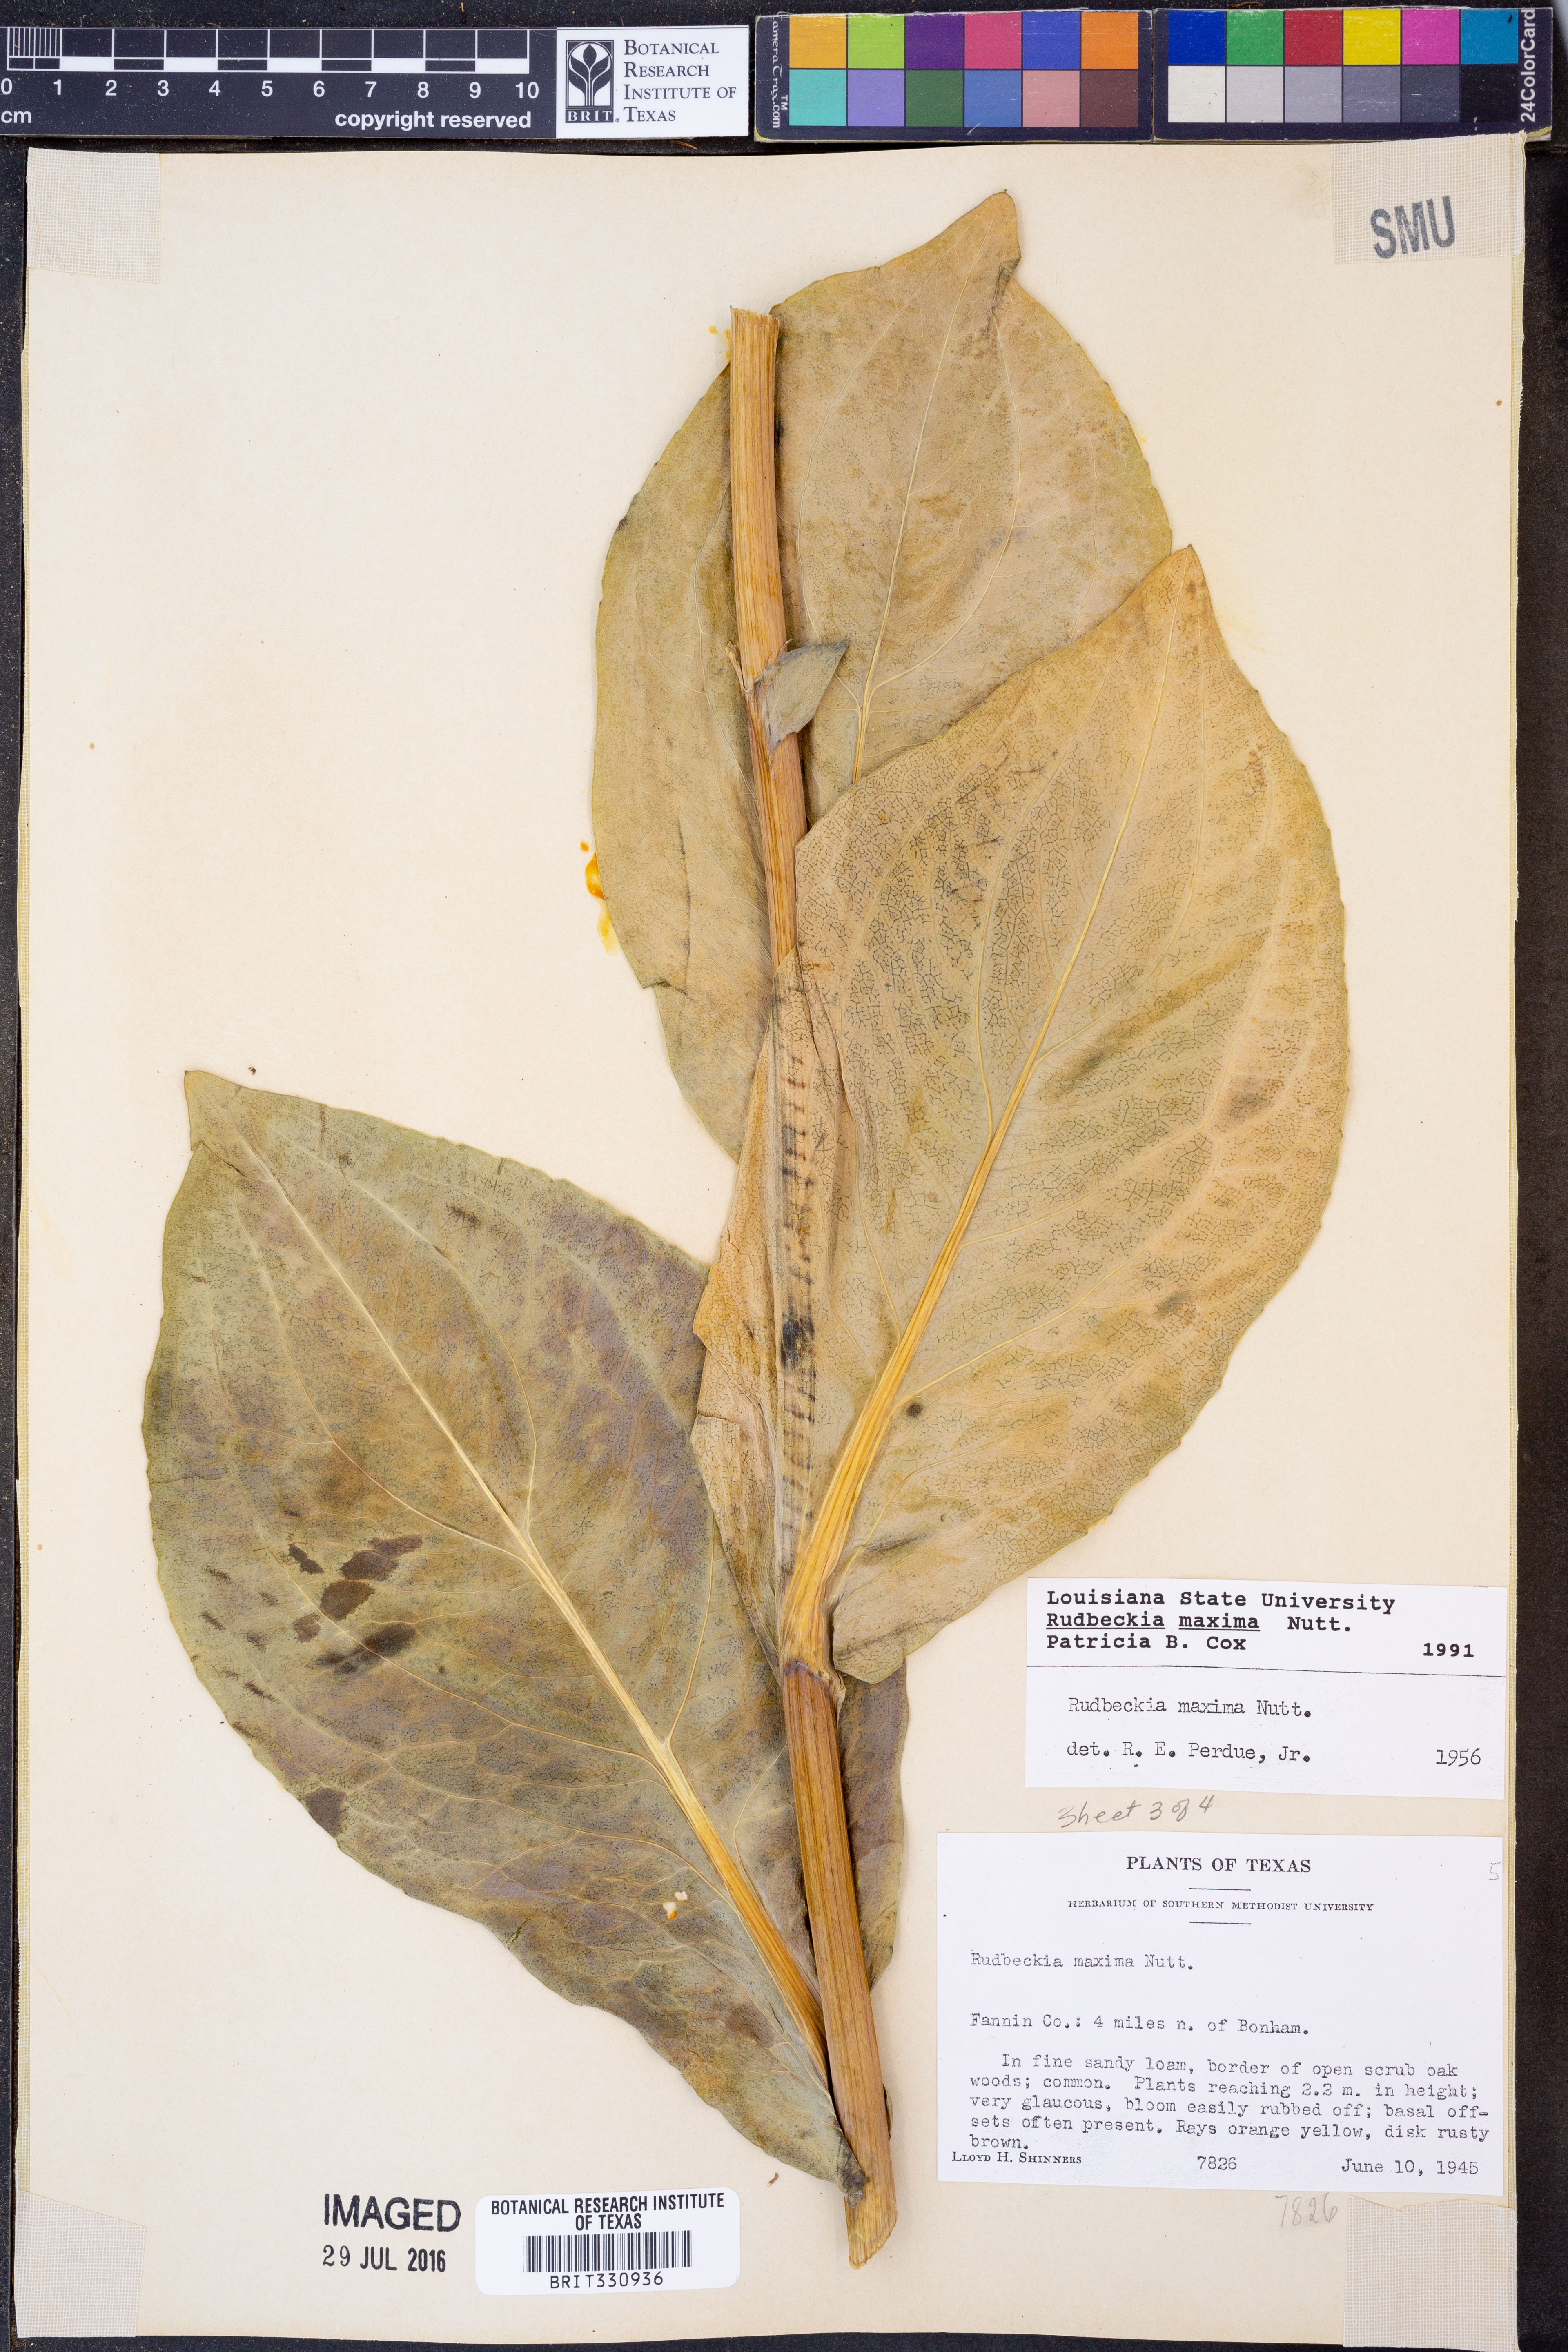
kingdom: Plantae
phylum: Tracheophyta
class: Magnoliopsida
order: Asterales
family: Asteraceae
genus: Rudbeckia
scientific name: Rudbeckia maxima
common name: Cabbage coneflower
